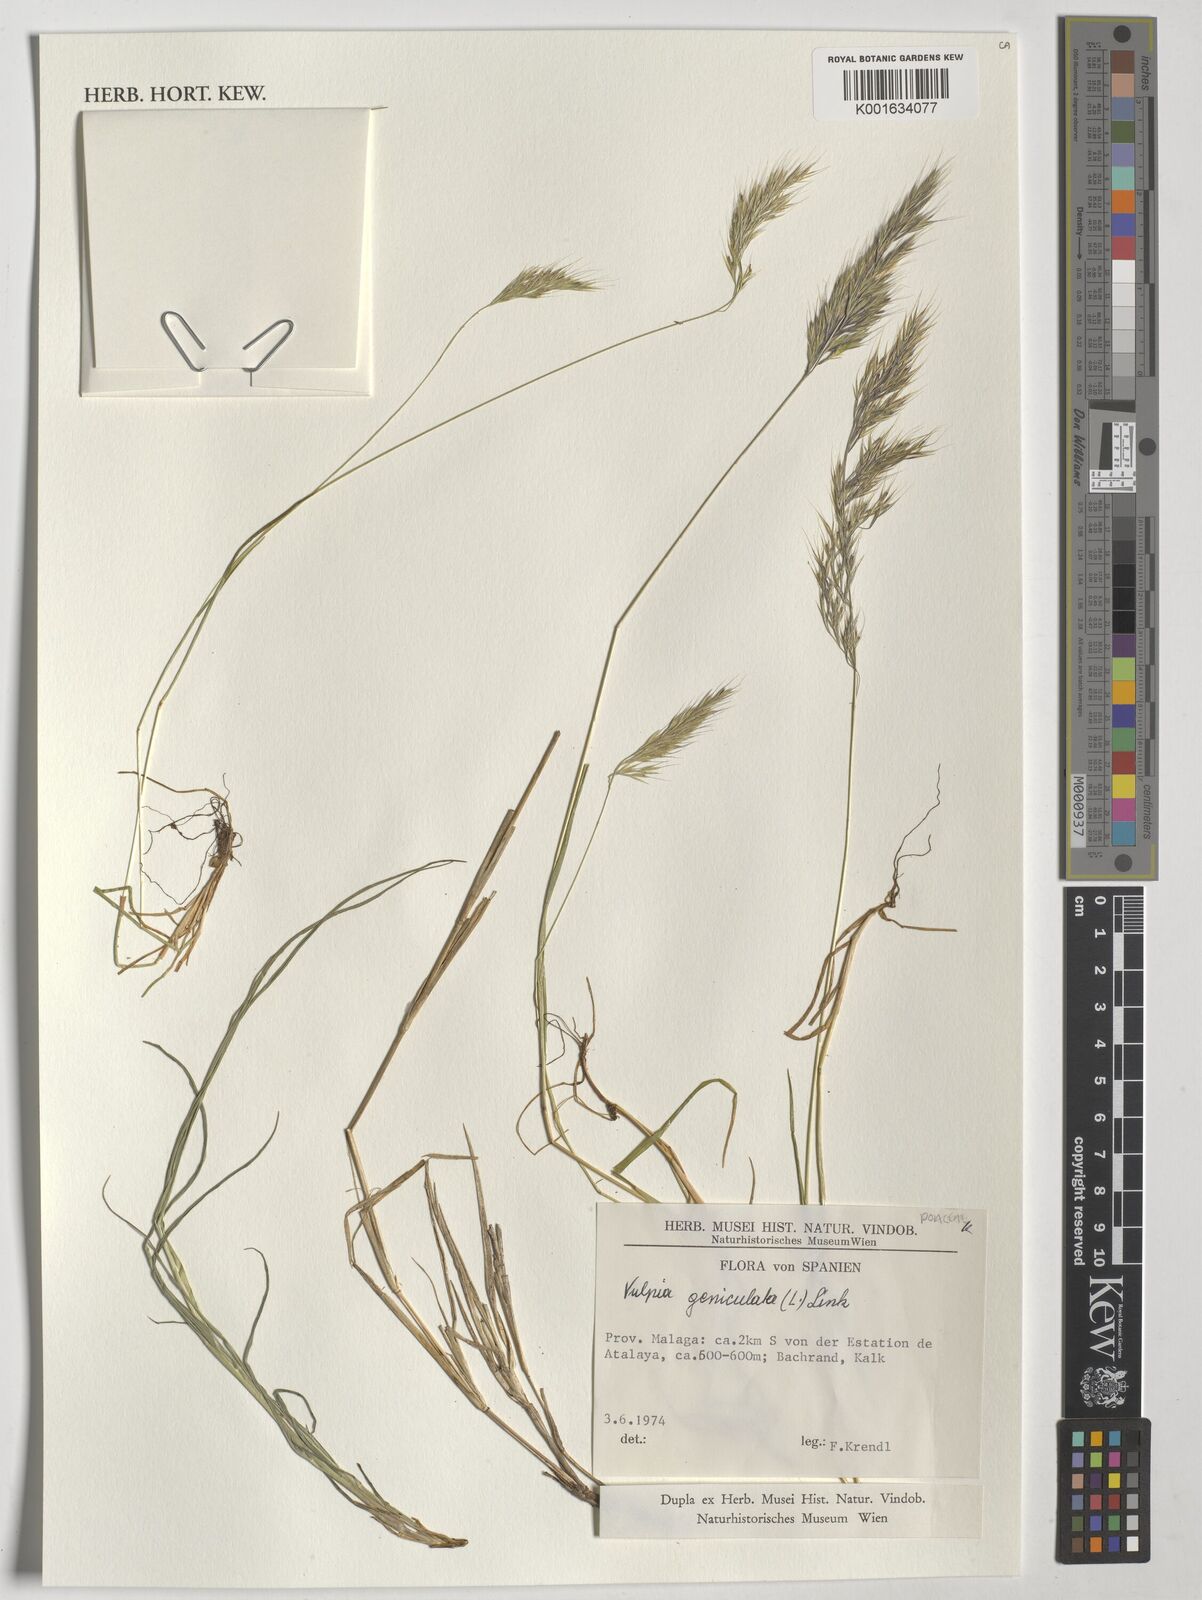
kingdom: Plantae
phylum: Tracheophyta
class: Liliopsida
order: Poales
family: Poaceae
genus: Festuca
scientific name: Festuca geniculata
